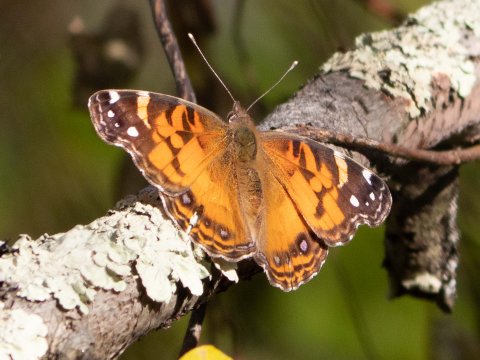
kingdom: Animalia
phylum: Arthropoda
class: Insecta
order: Lepidoptera
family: Nymphalidae
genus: Vanessa
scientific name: Vanessa virginiensis
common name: American Lady
